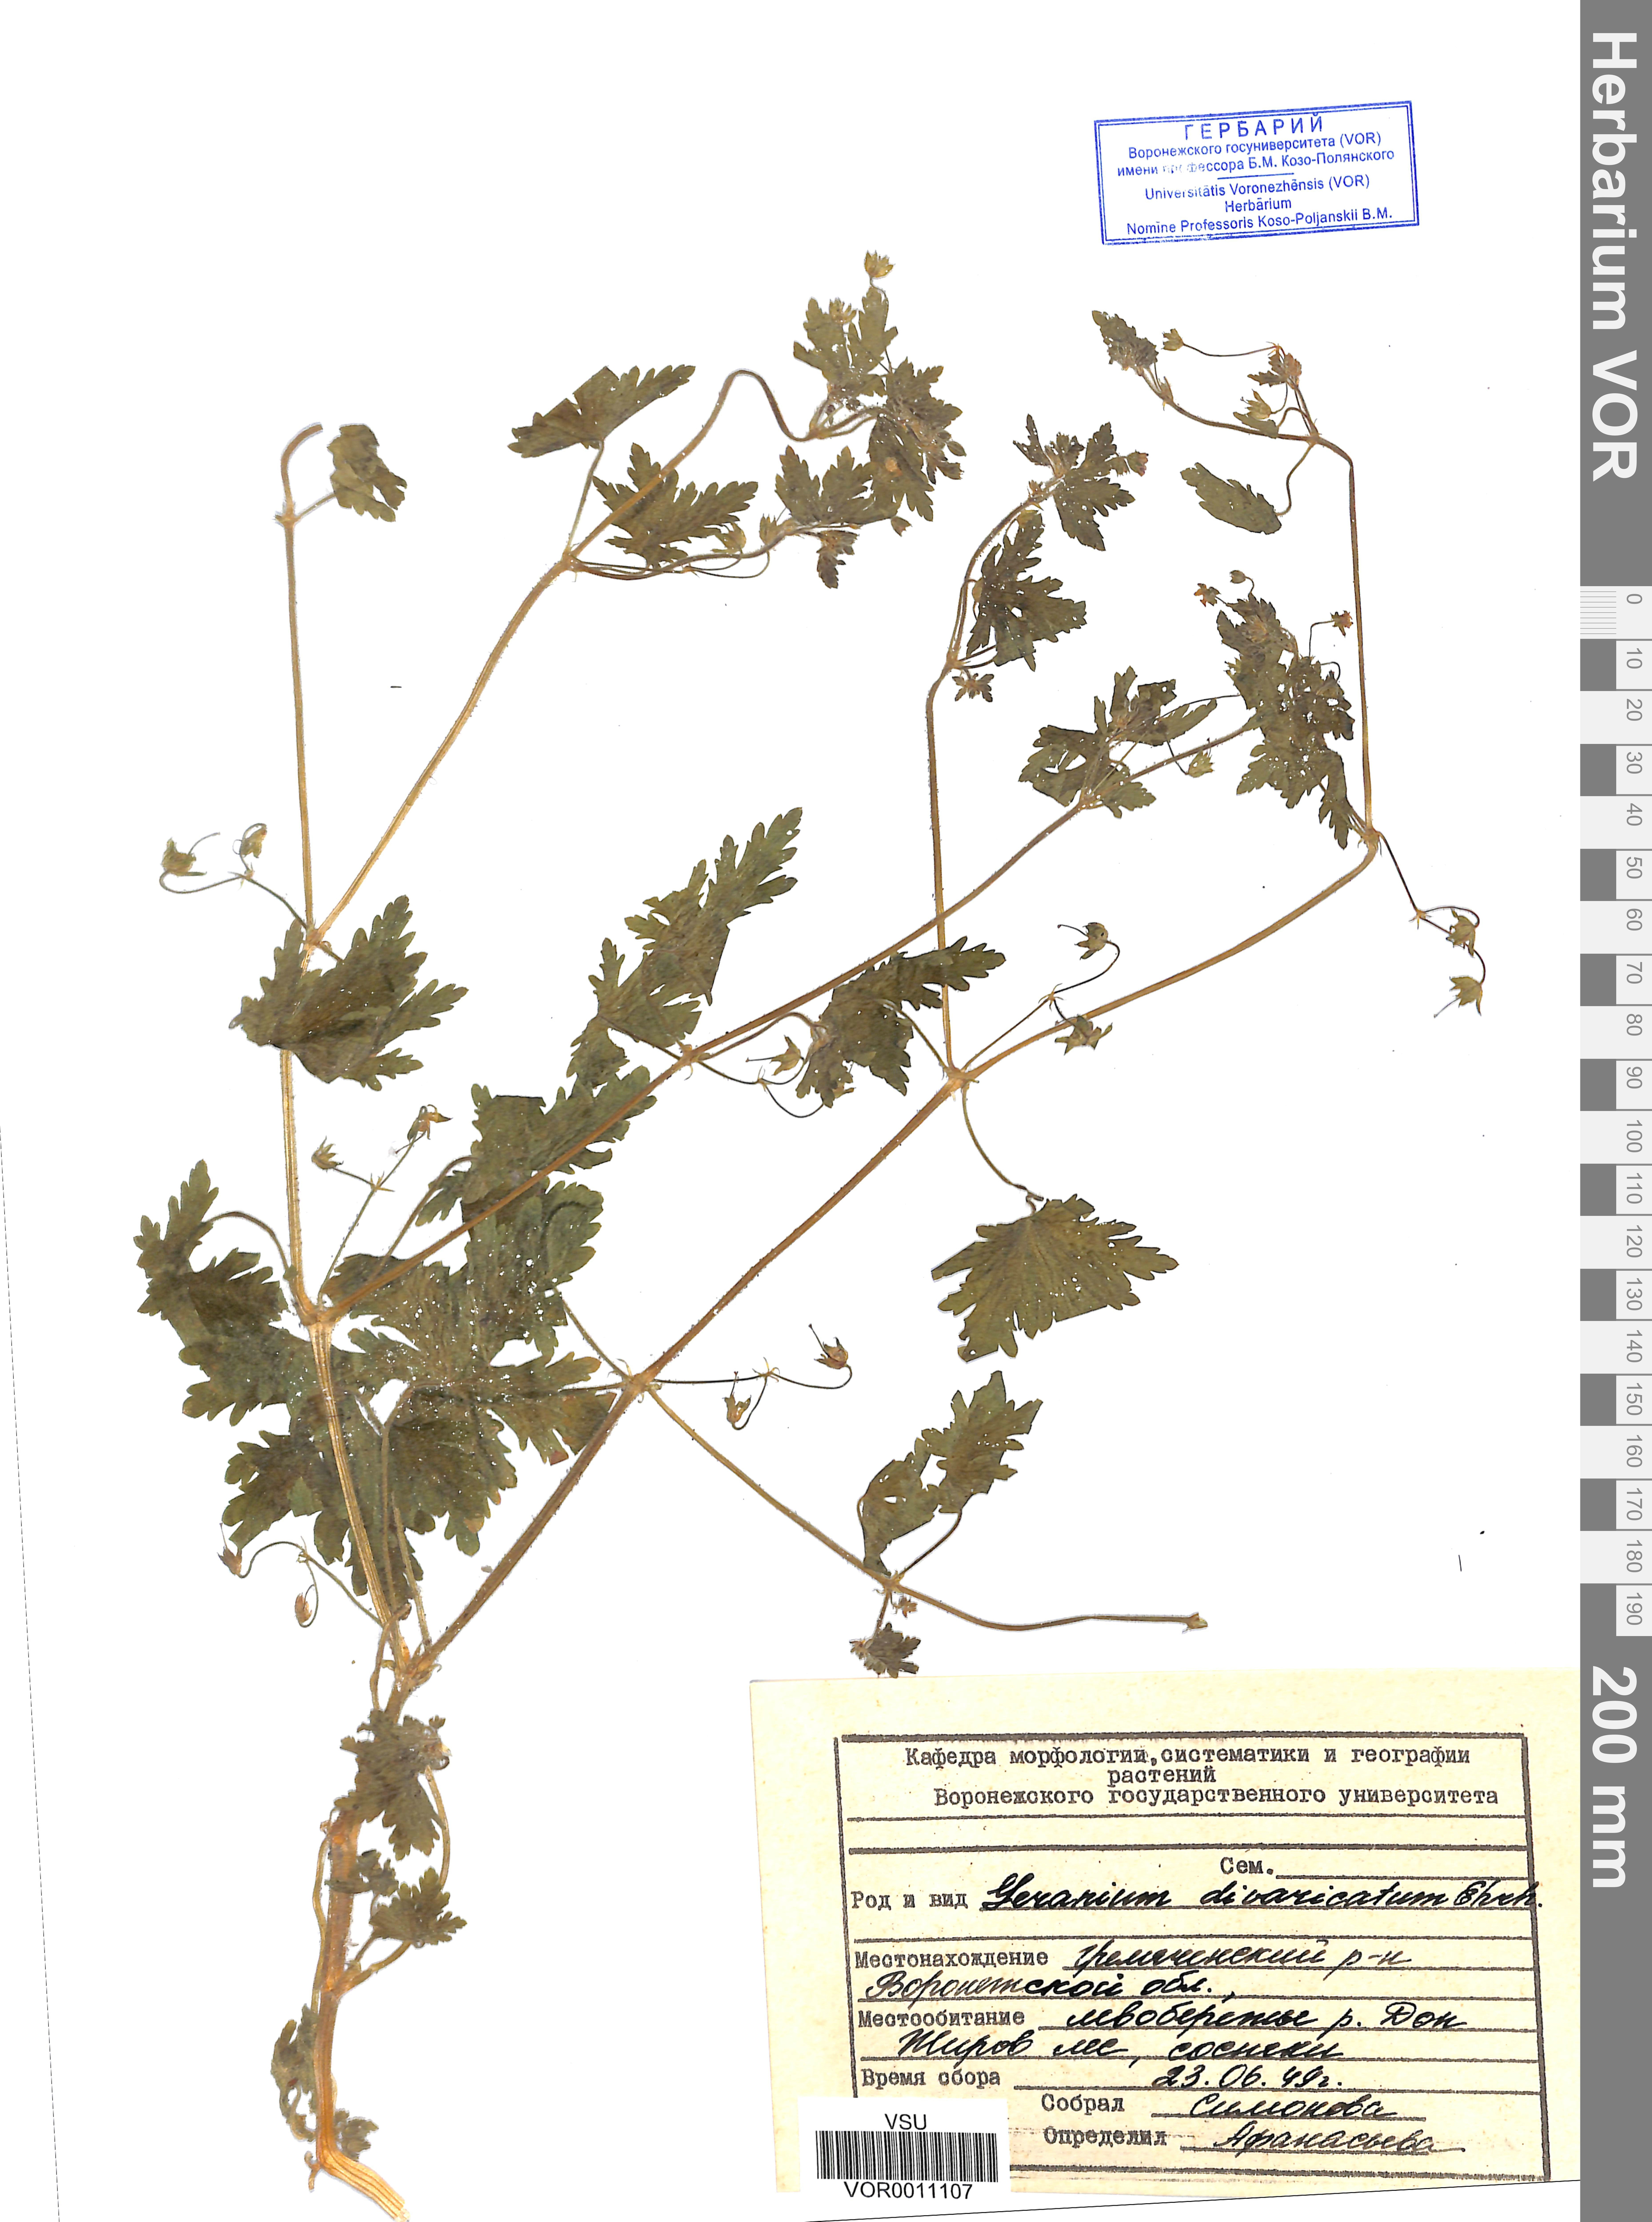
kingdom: Plantae
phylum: Tracheophyta
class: Magnoliopsida
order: Geraniales
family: Geraniaceae
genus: Geranium
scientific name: Geranium divaricatum
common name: Spreading crane's-bill
